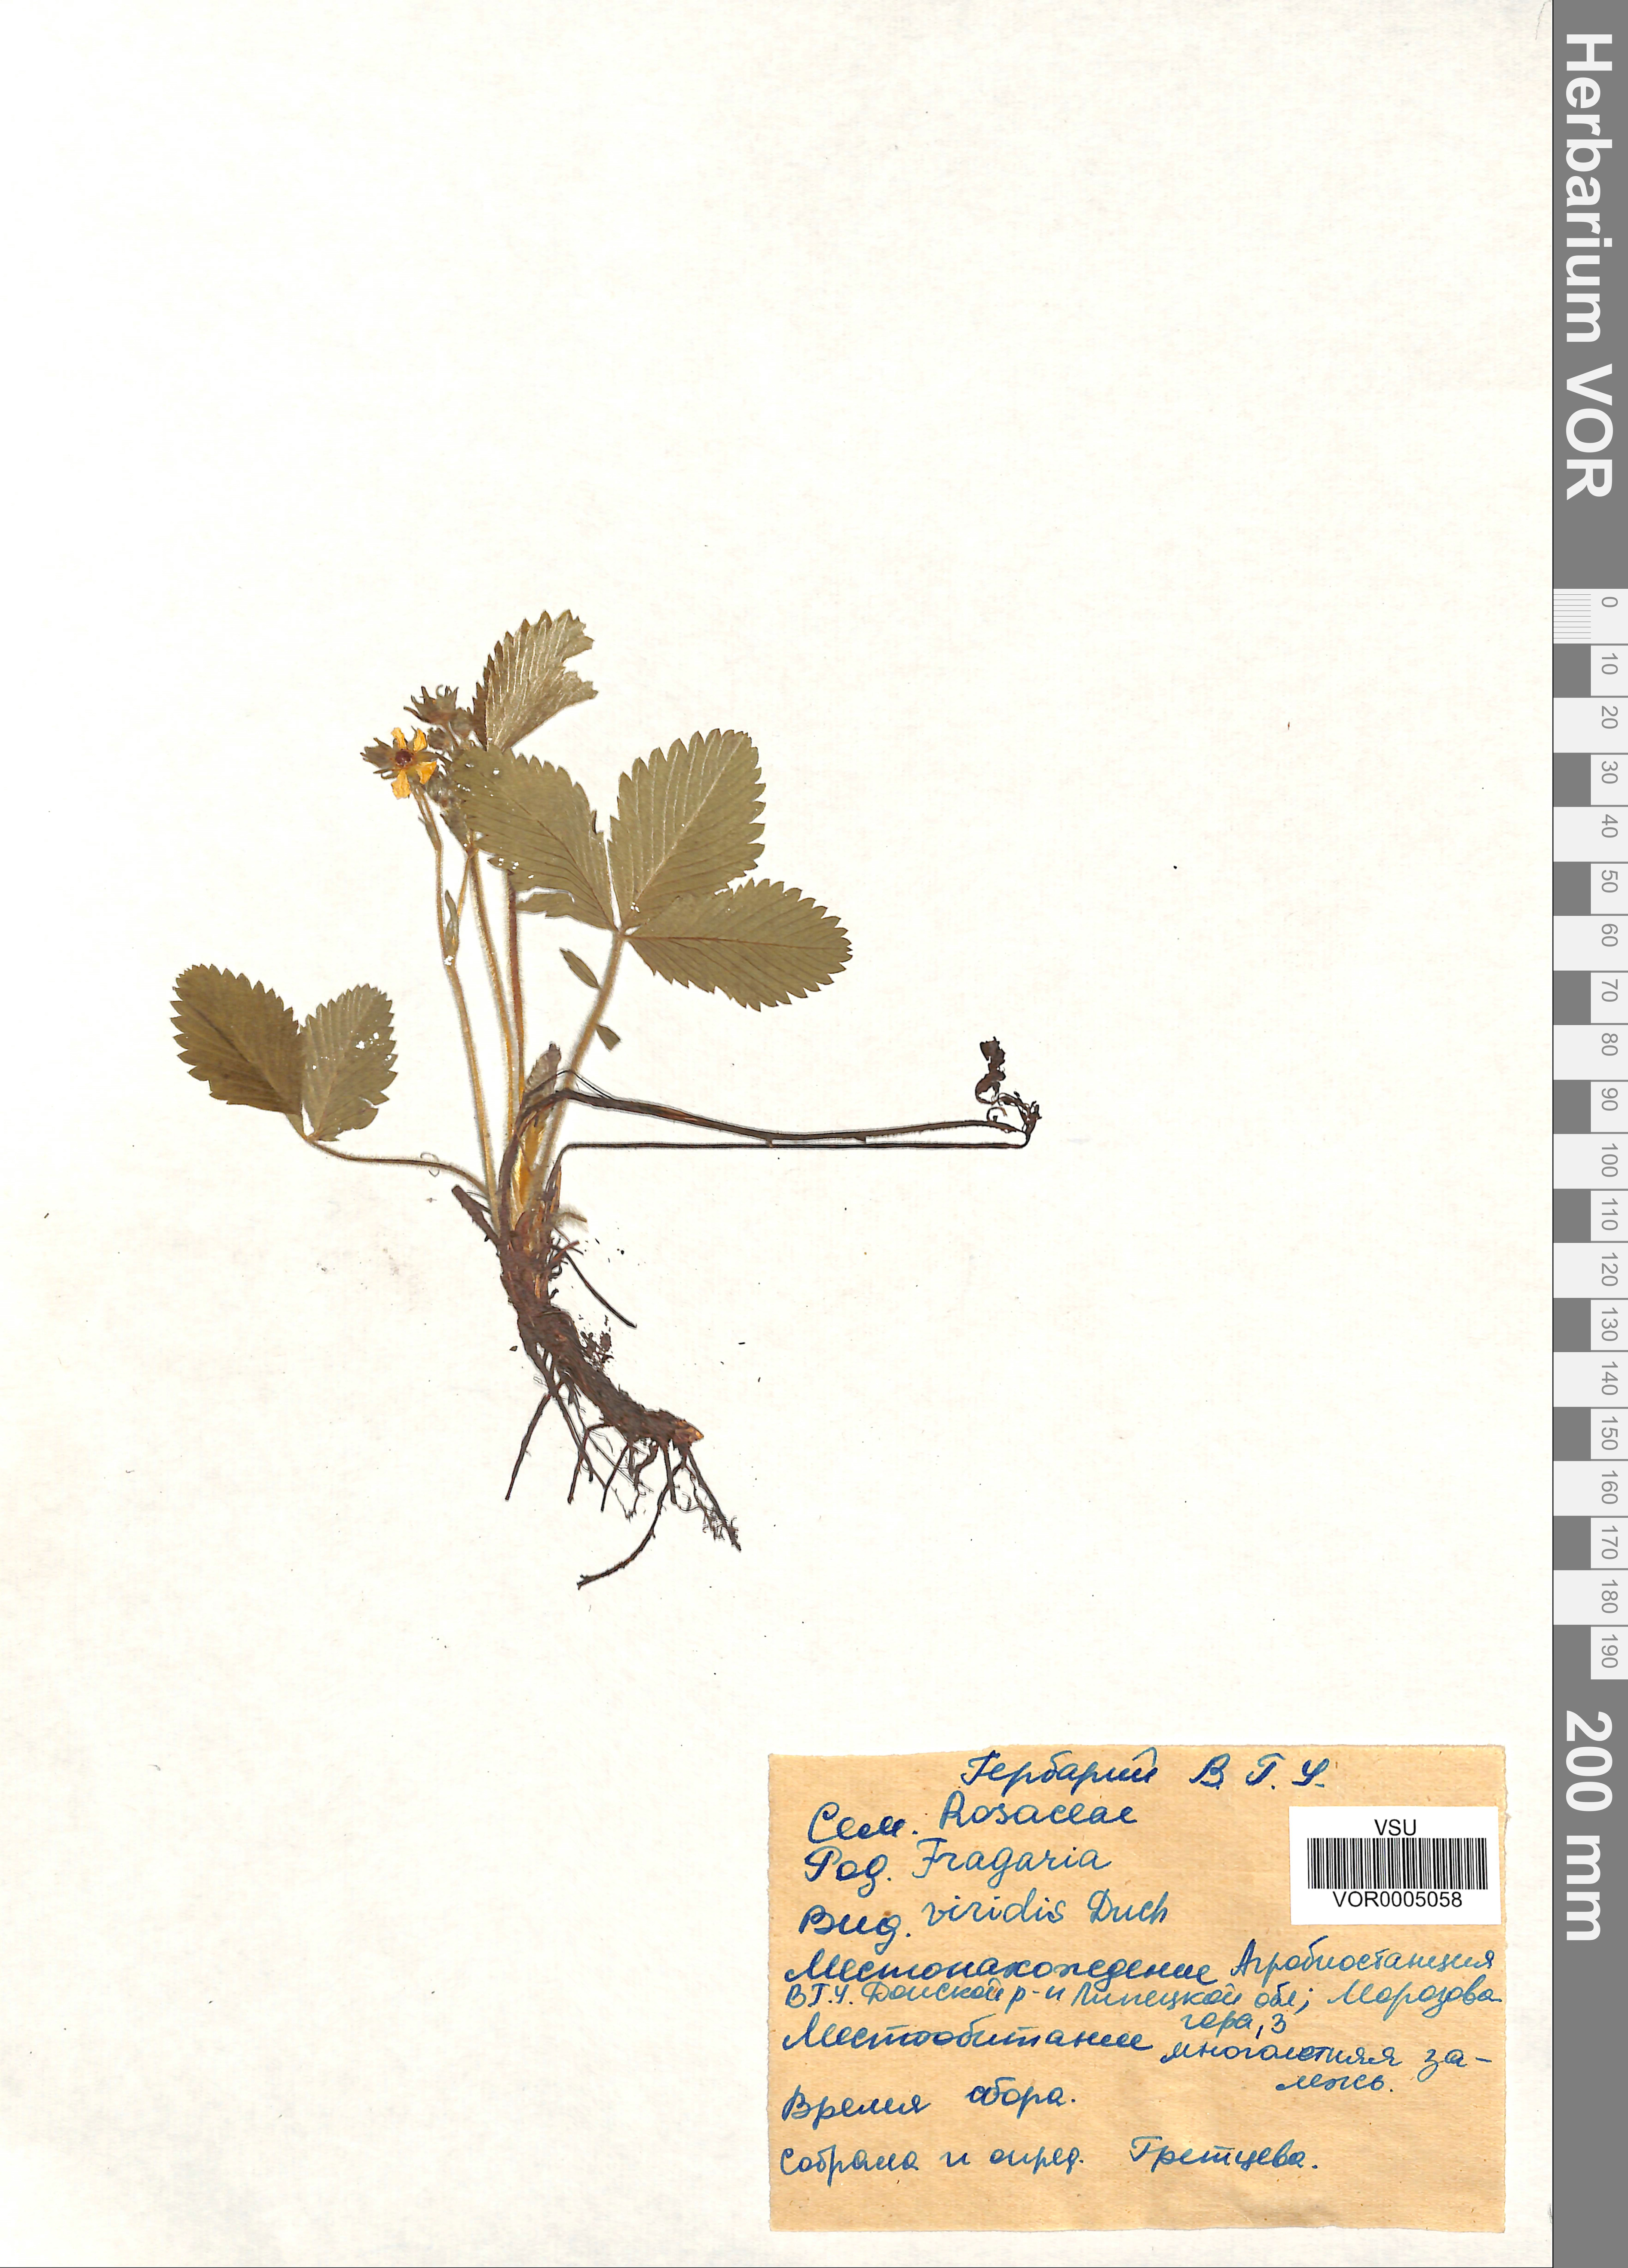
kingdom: Plantae
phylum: Tracheophyta
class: Magnoliopsida
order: Rosales
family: Rosaceae
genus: Fragaria
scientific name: Fragaria viridis
